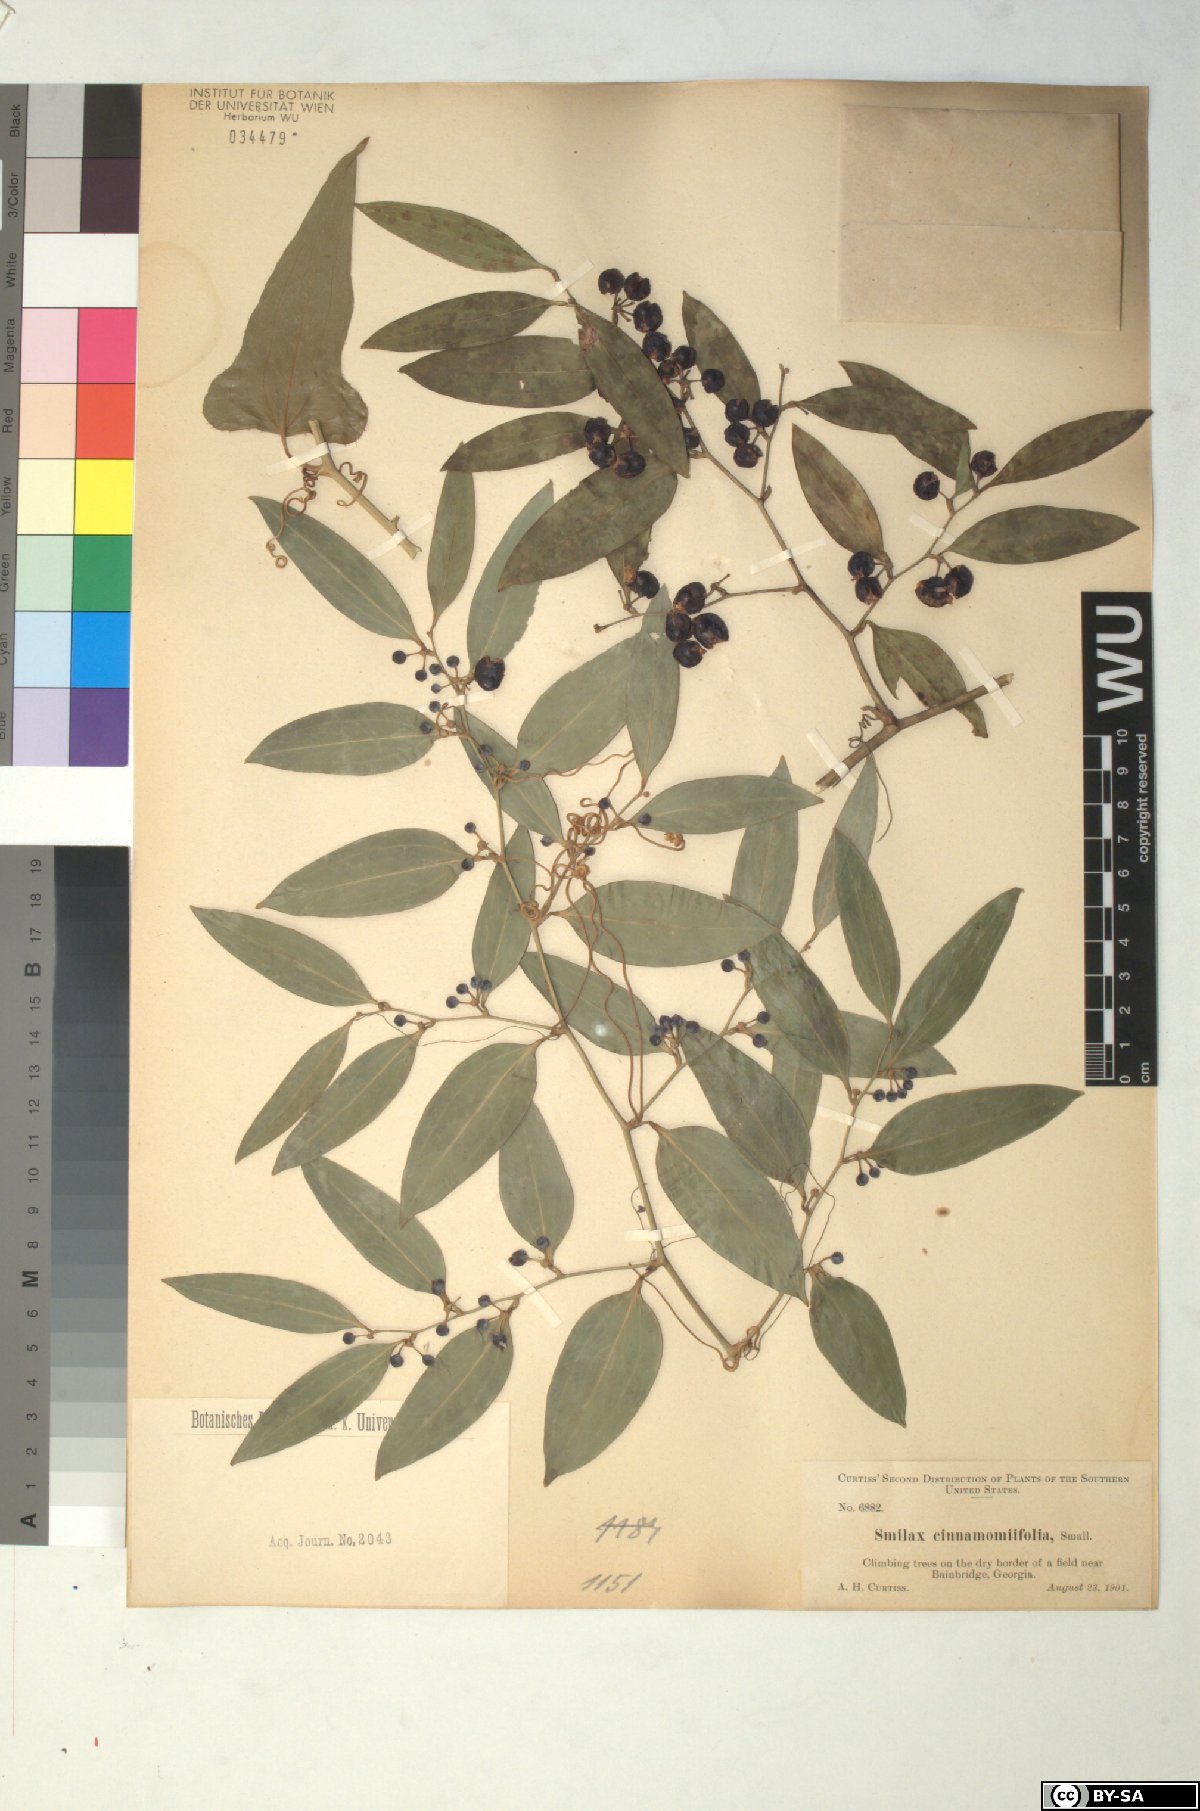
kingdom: Plantae
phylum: Tracheophyta
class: Liliopsida
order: Liliales
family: Smilacaceae
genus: Smilax
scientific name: Smilax maritima
